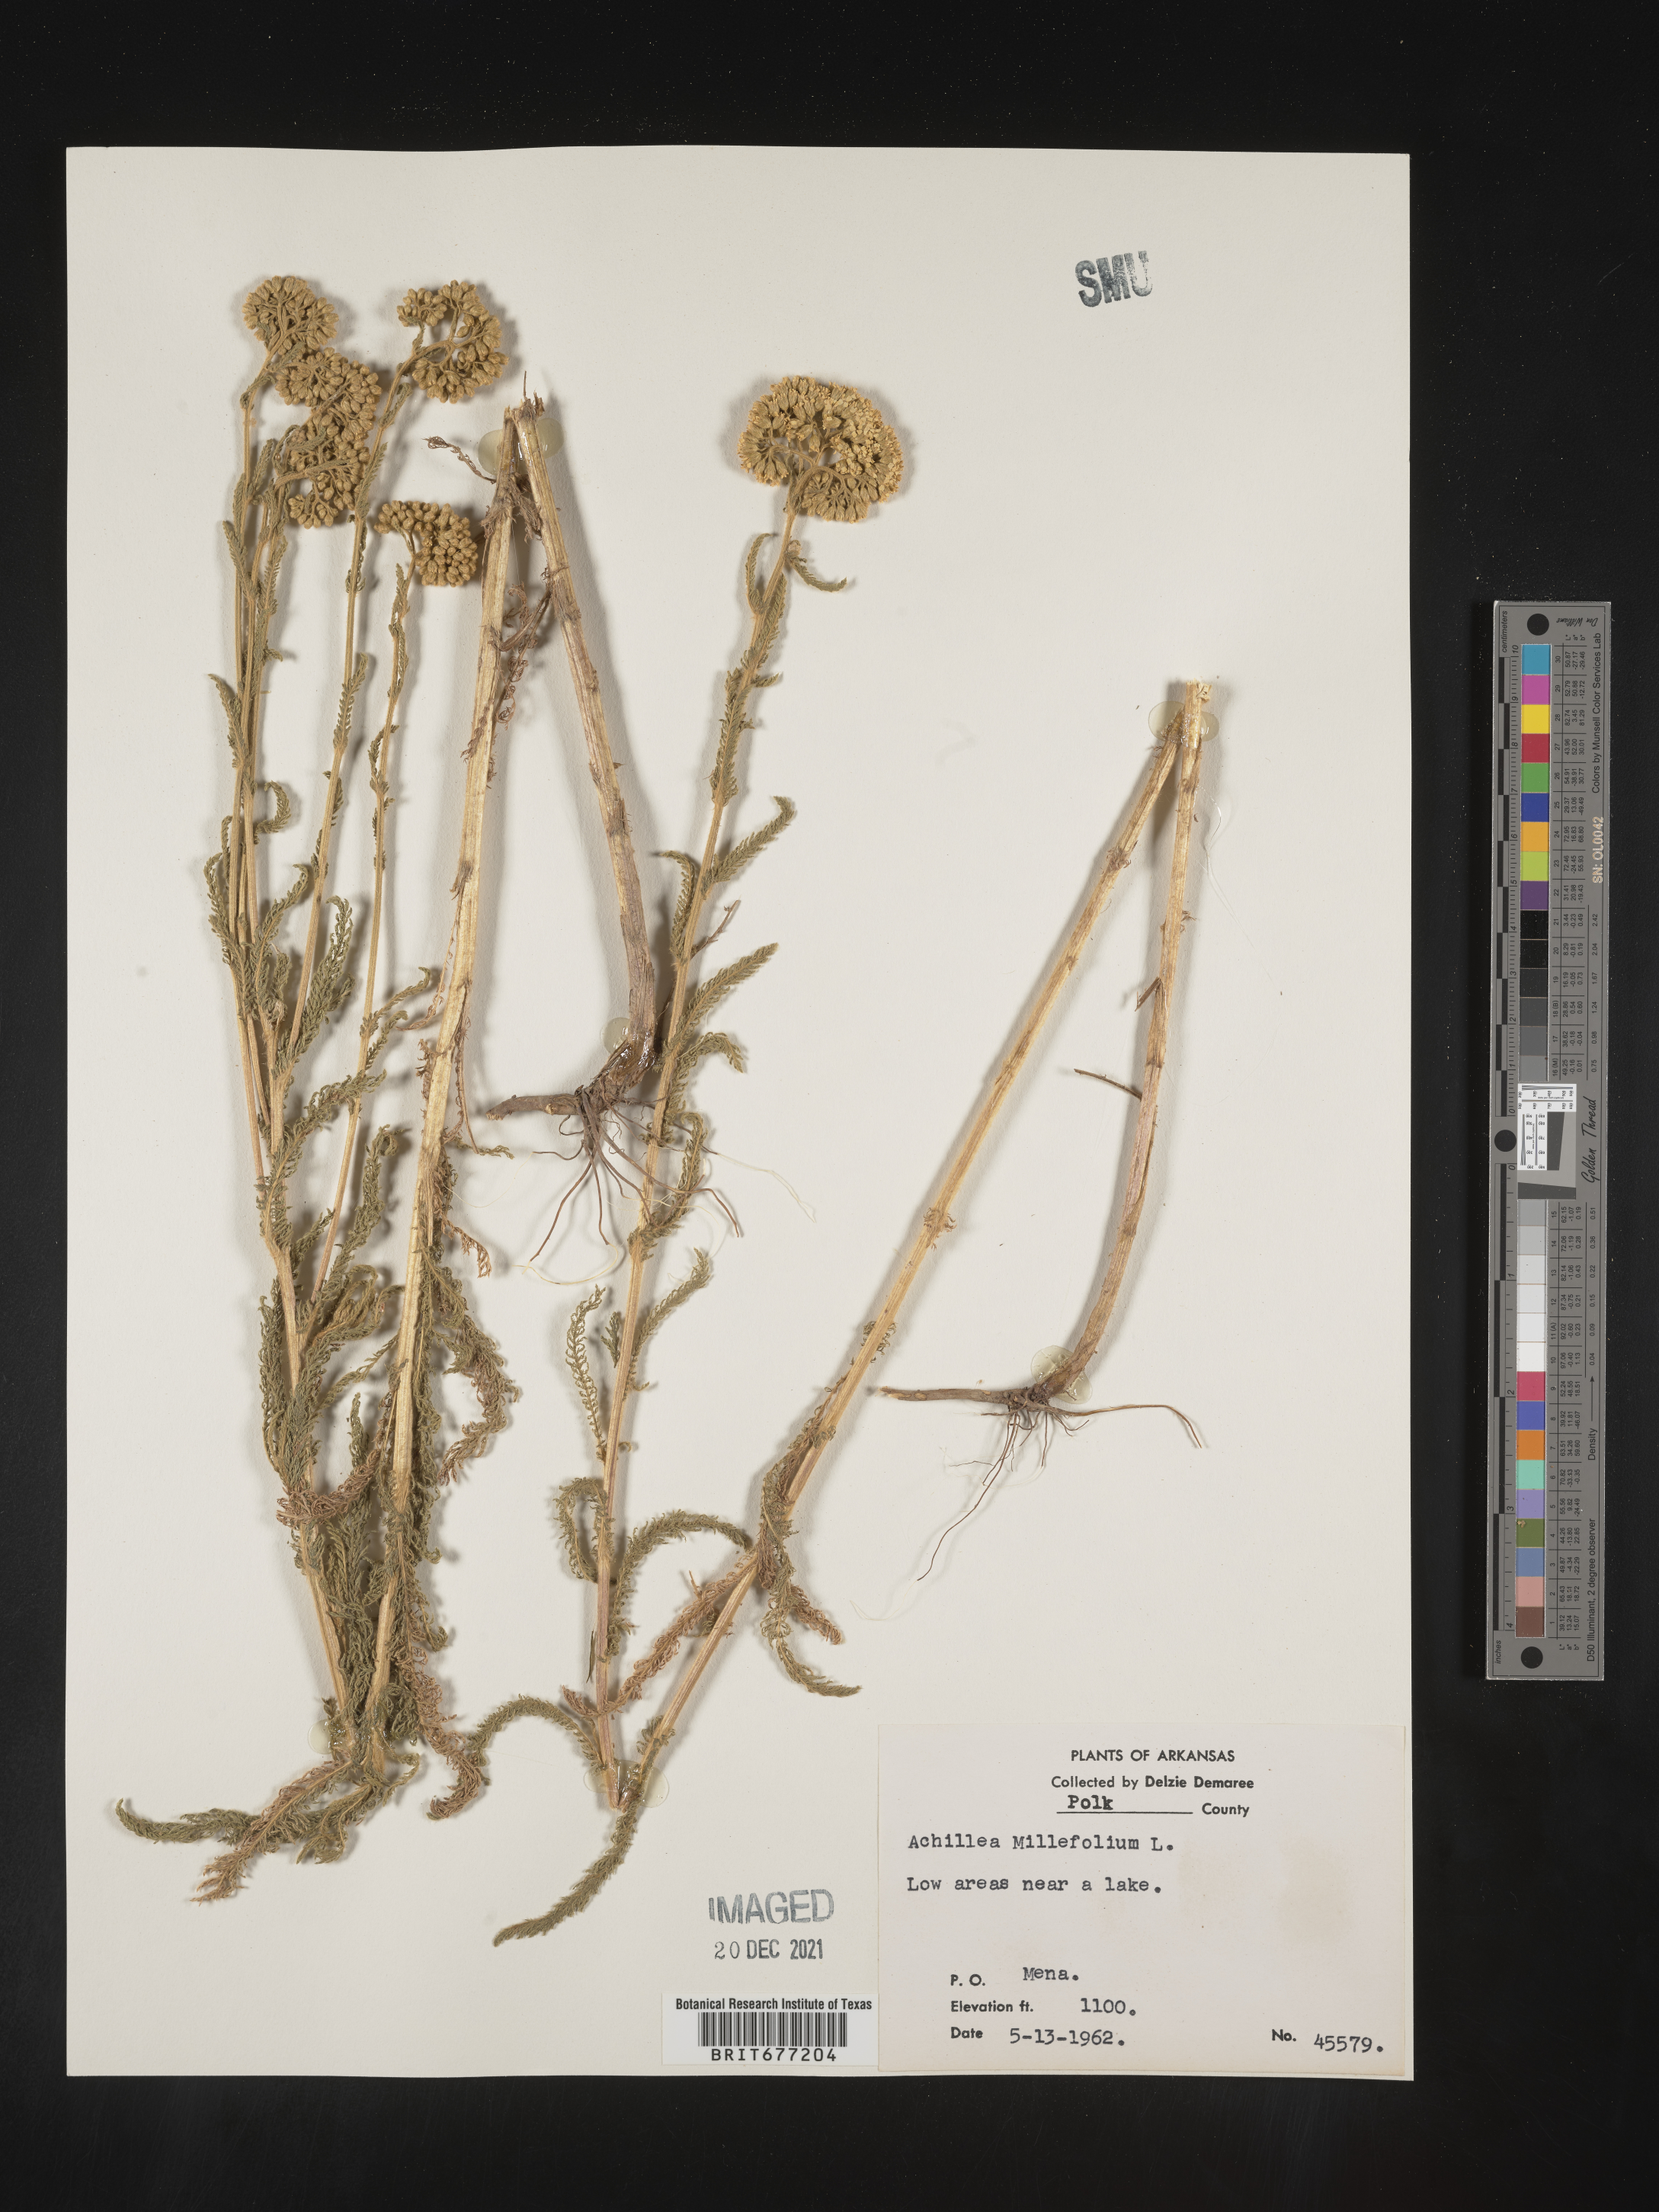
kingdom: Plantae
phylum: Tracheophyta
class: Magnoliopsida
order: Asterales
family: Asteraceae
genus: Achillea
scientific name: Achillea millefolium
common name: Yarrow
